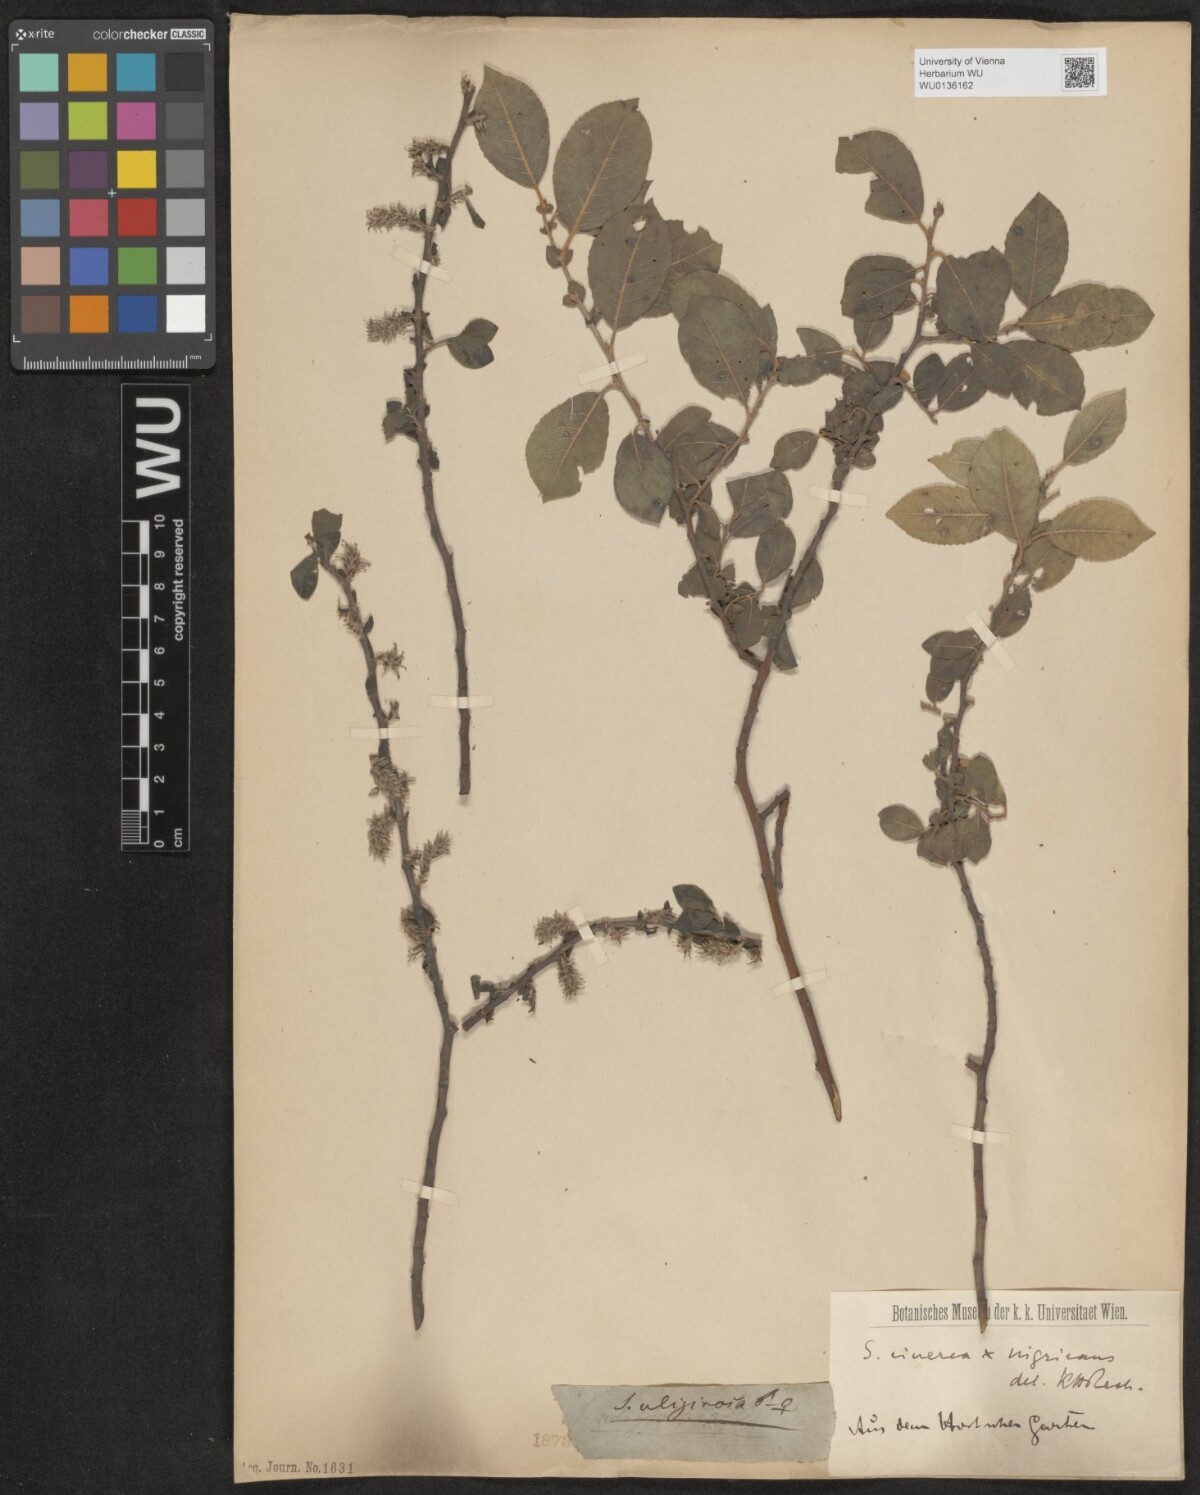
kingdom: Plantae
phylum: Tracheophyta
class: Magnoliopsida
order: Malpighiales
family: Salicaceae
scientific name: Salicaceae
